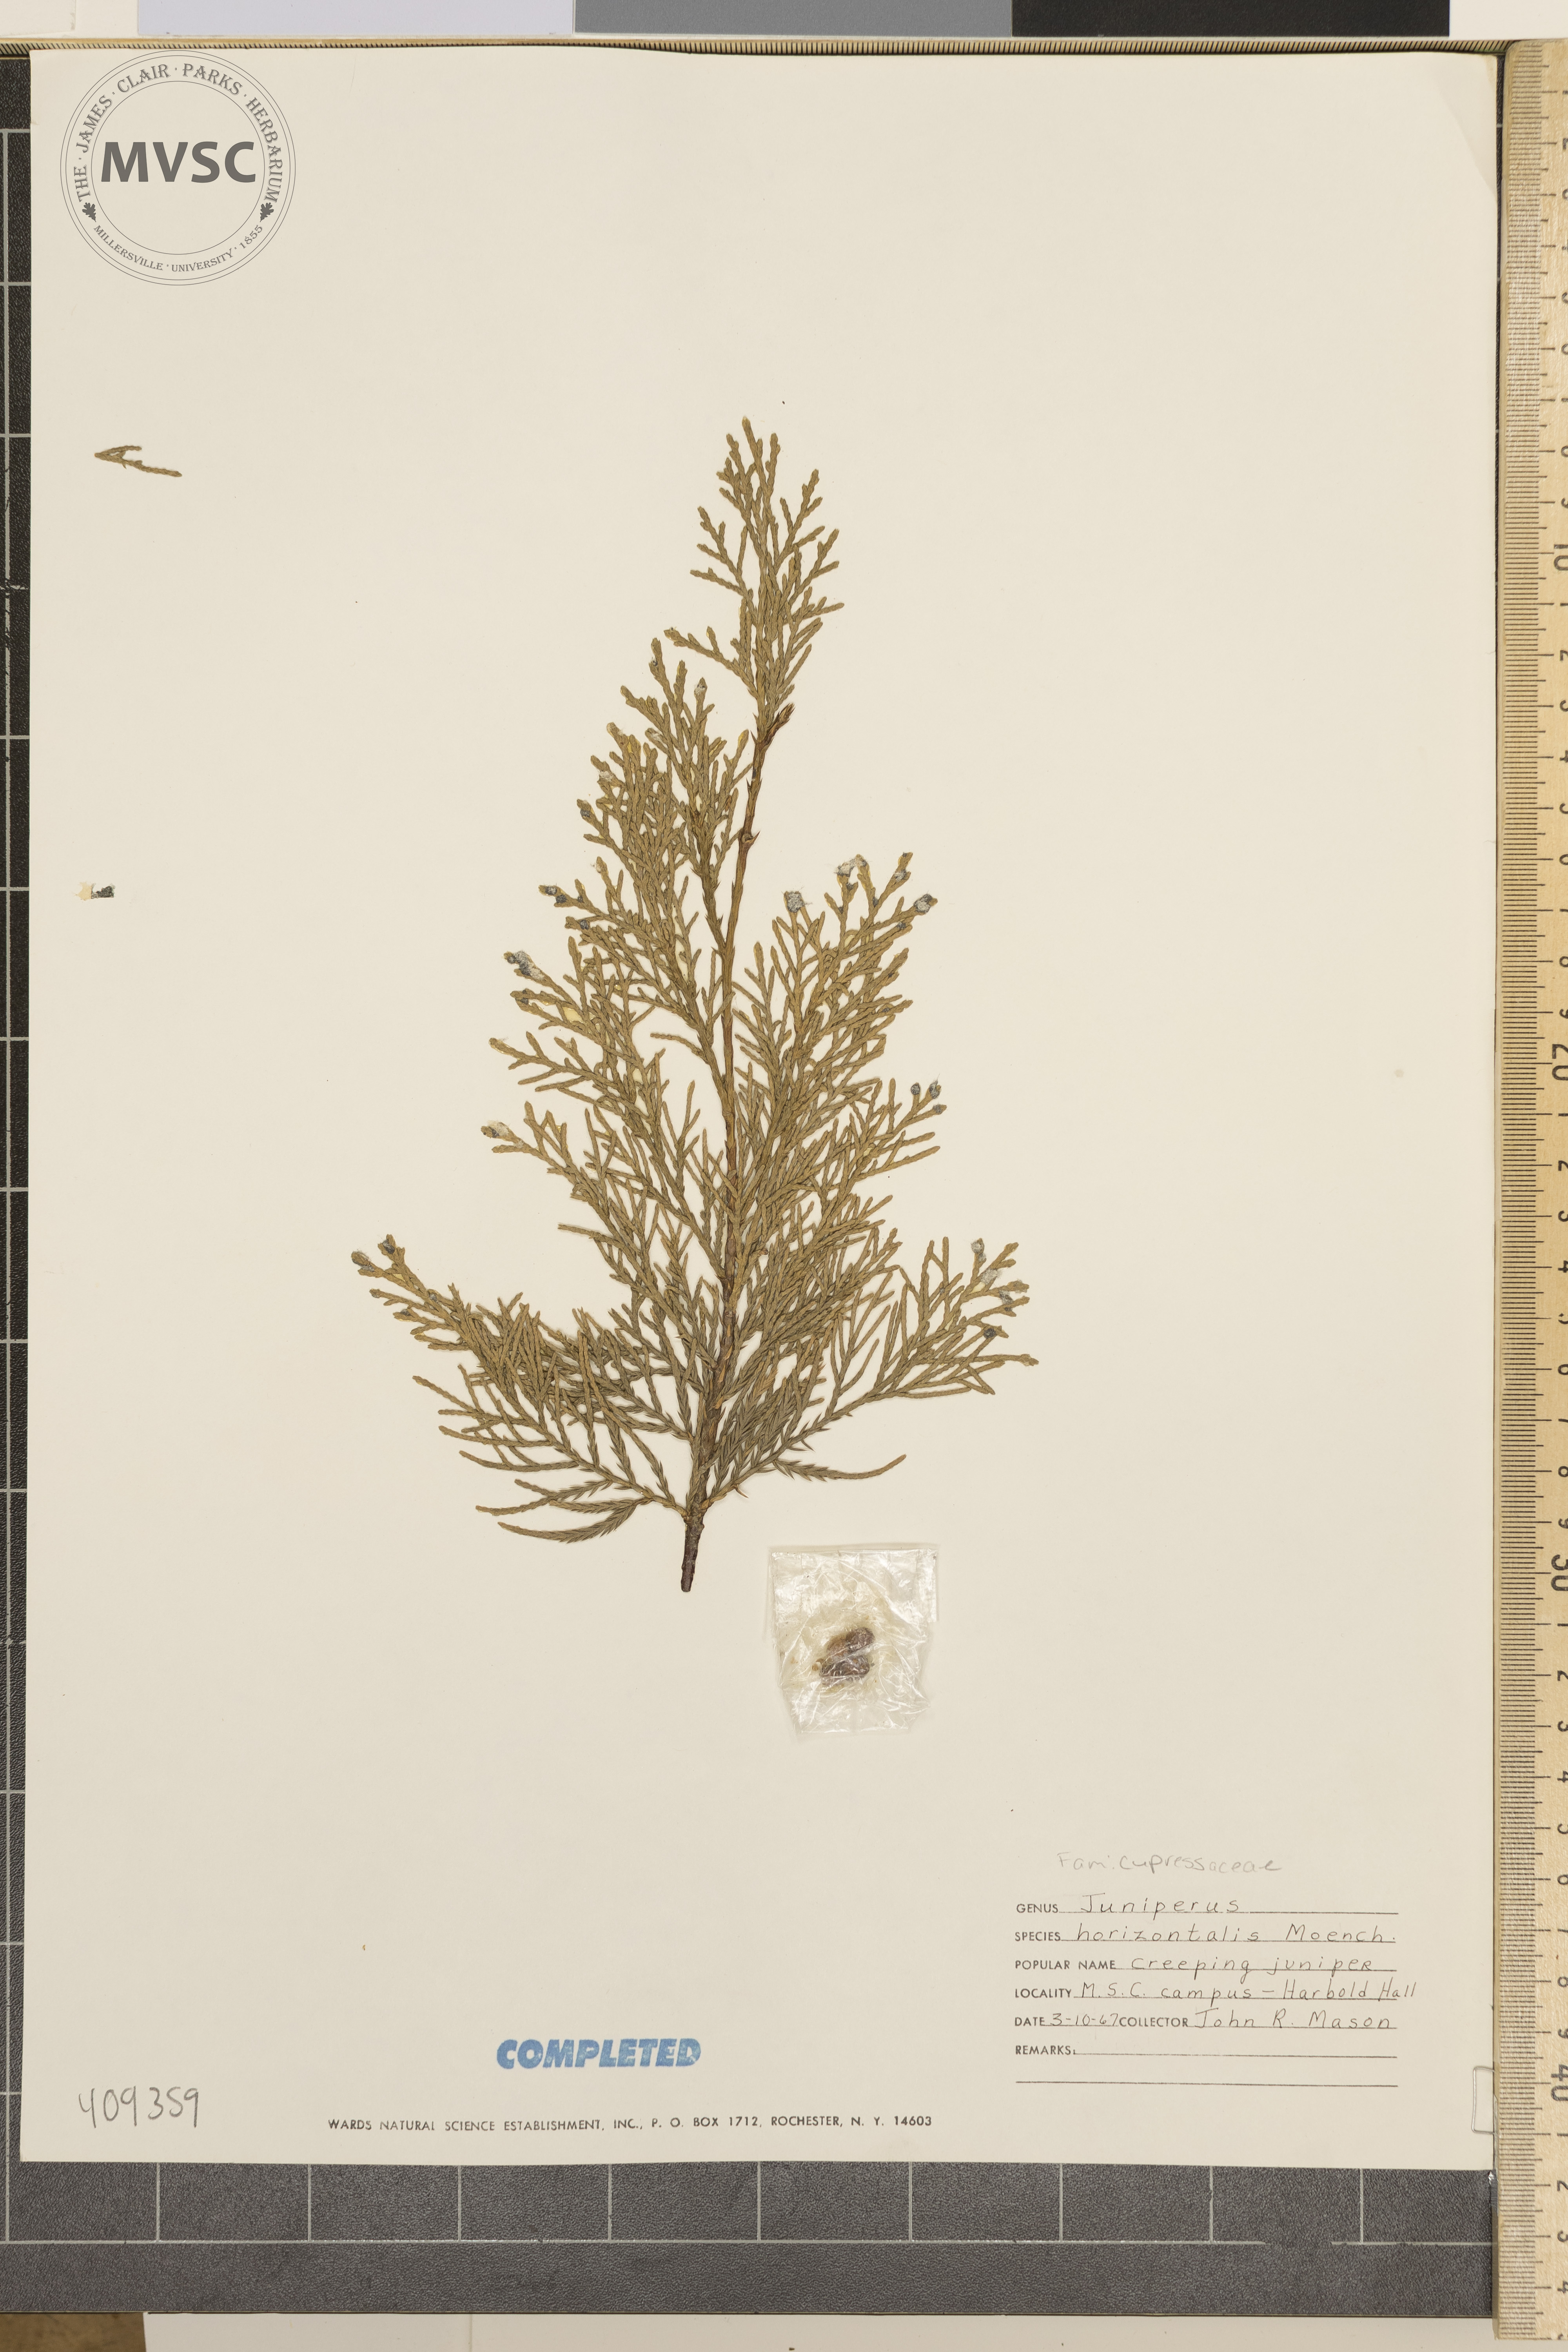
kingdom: Plantae
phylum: Tracheophyta
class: Pinopsida
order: Pinales
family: Cupressaceae
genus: Juniperus
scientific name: Juniperus horizontalis
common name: Creeping juniper
